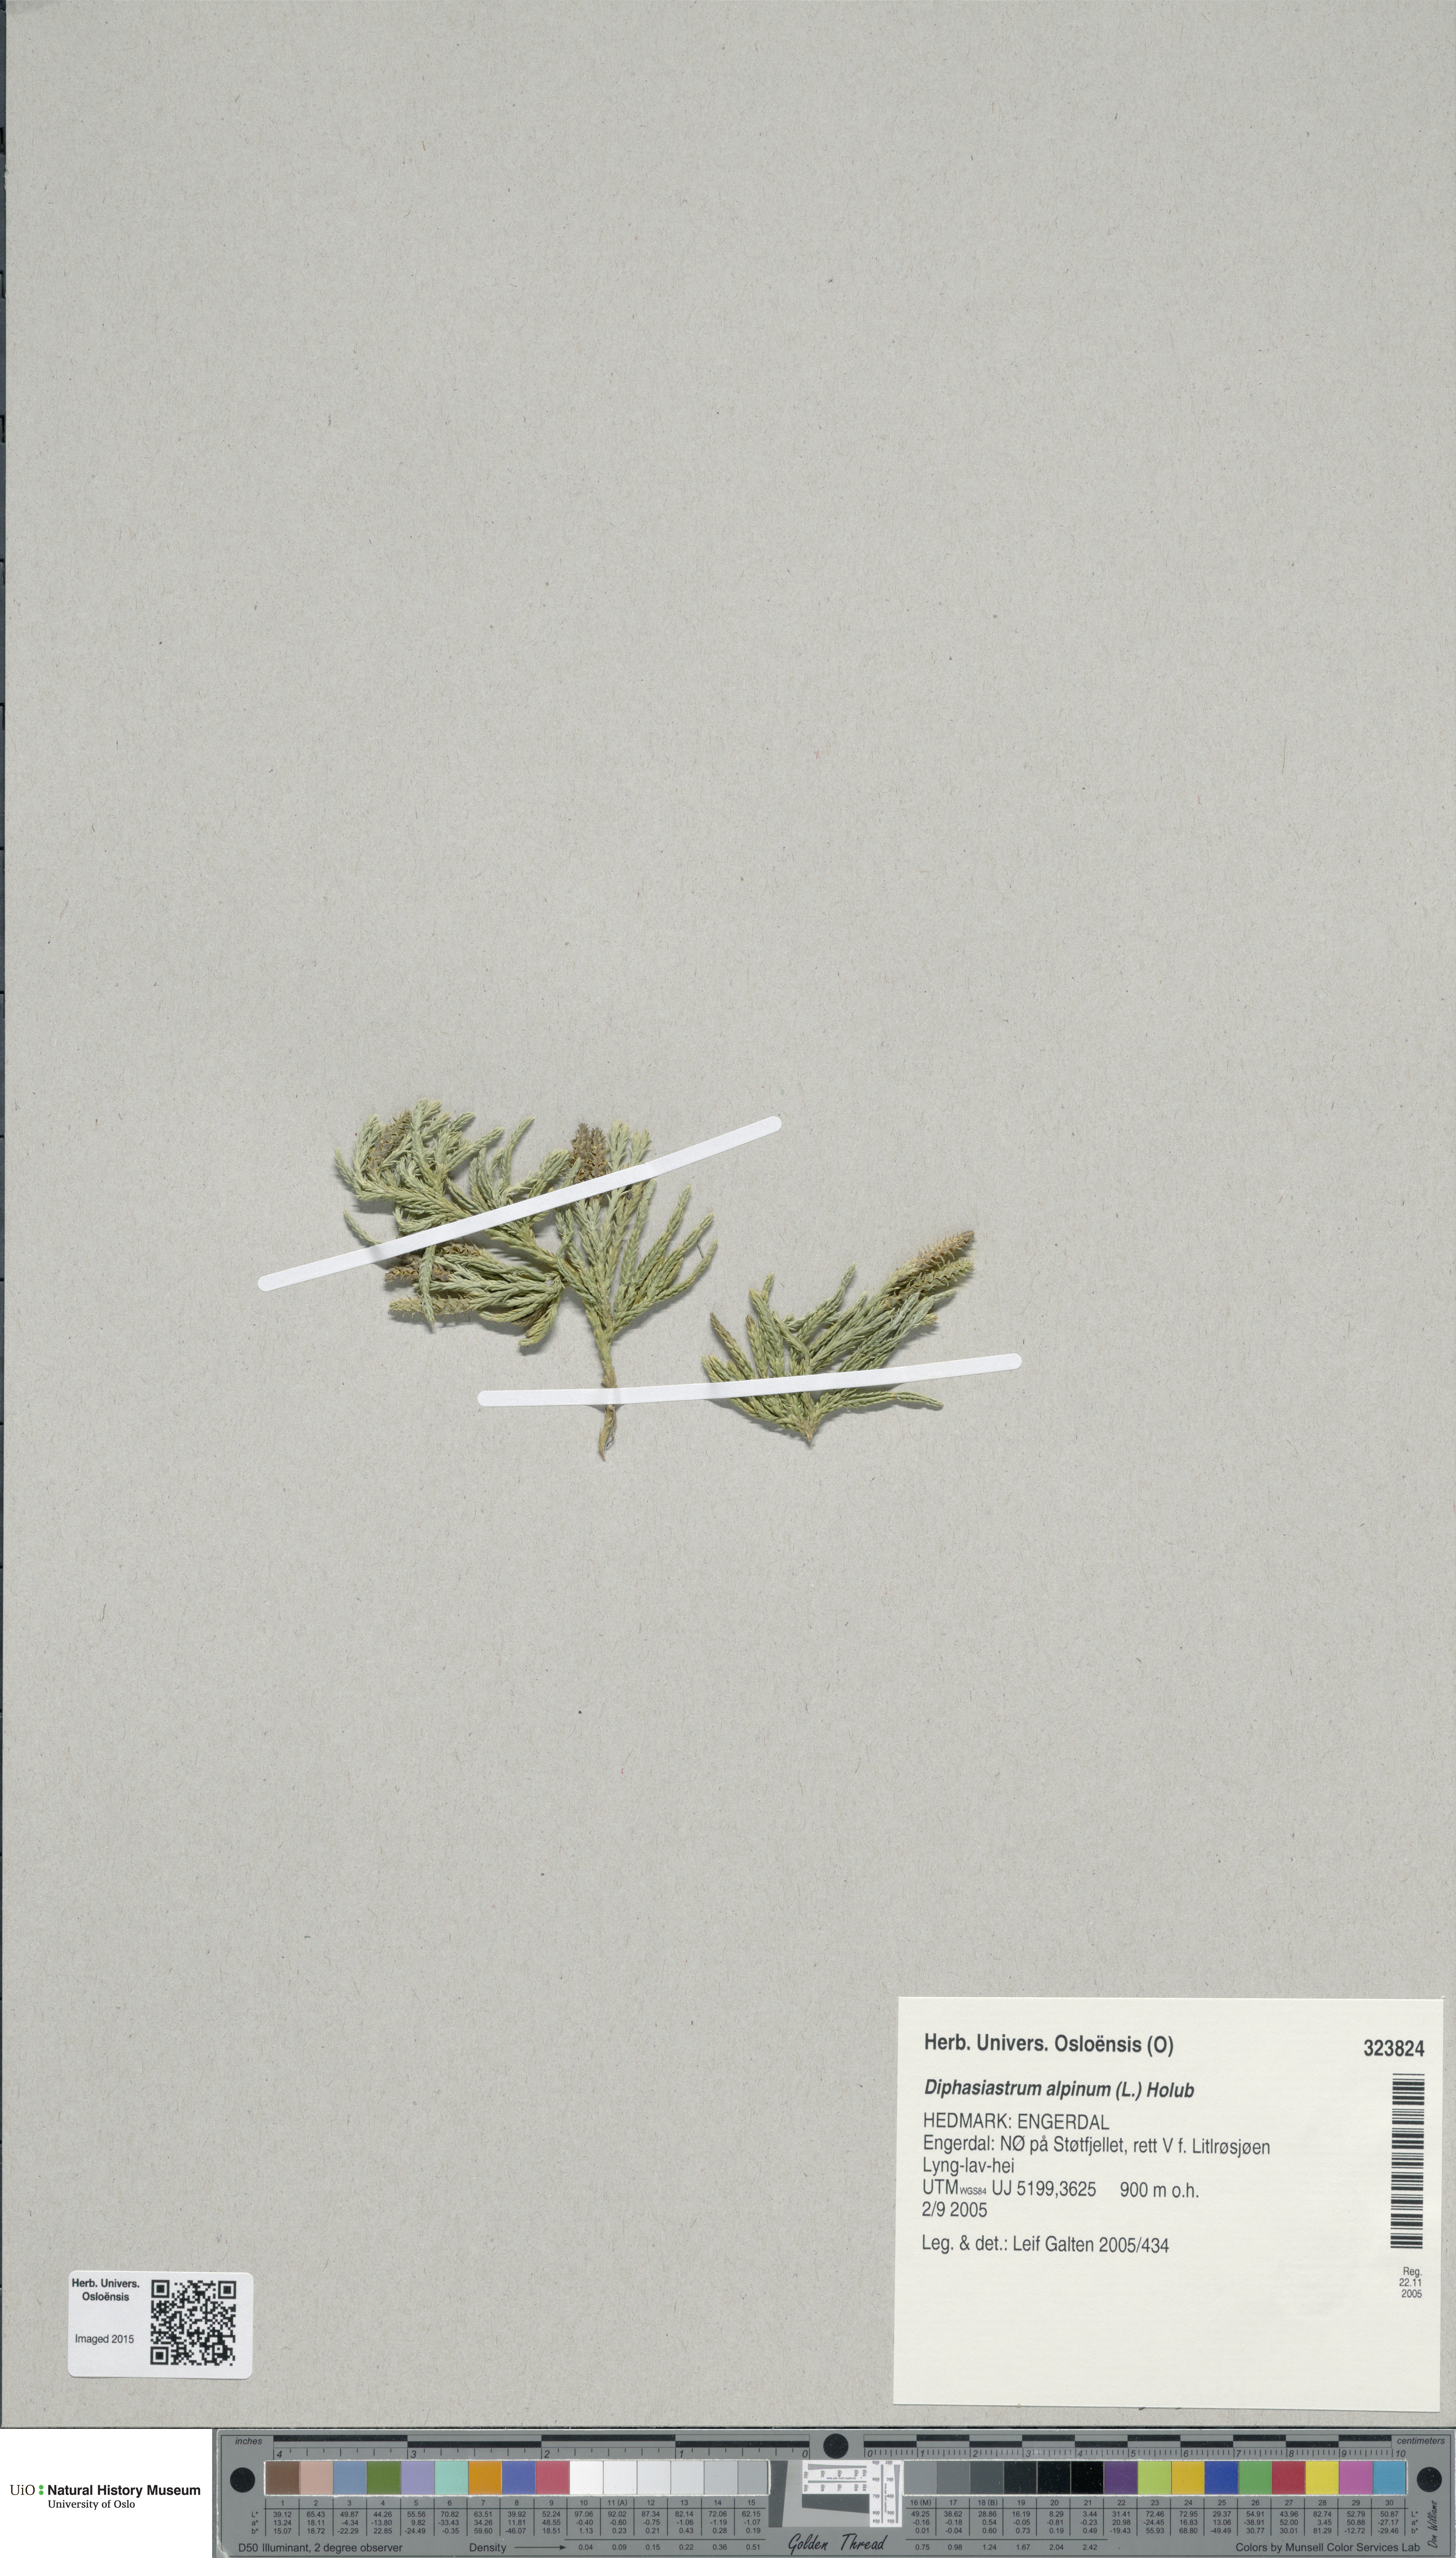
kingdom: Plantae
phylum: Tracheophyta
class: Lycopodiopsida
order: Lycopodiales
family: Lycopodiaceae
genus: Diphasiastrum
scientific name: Diphasiastrum alpinum
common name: Alpine clubmoss
